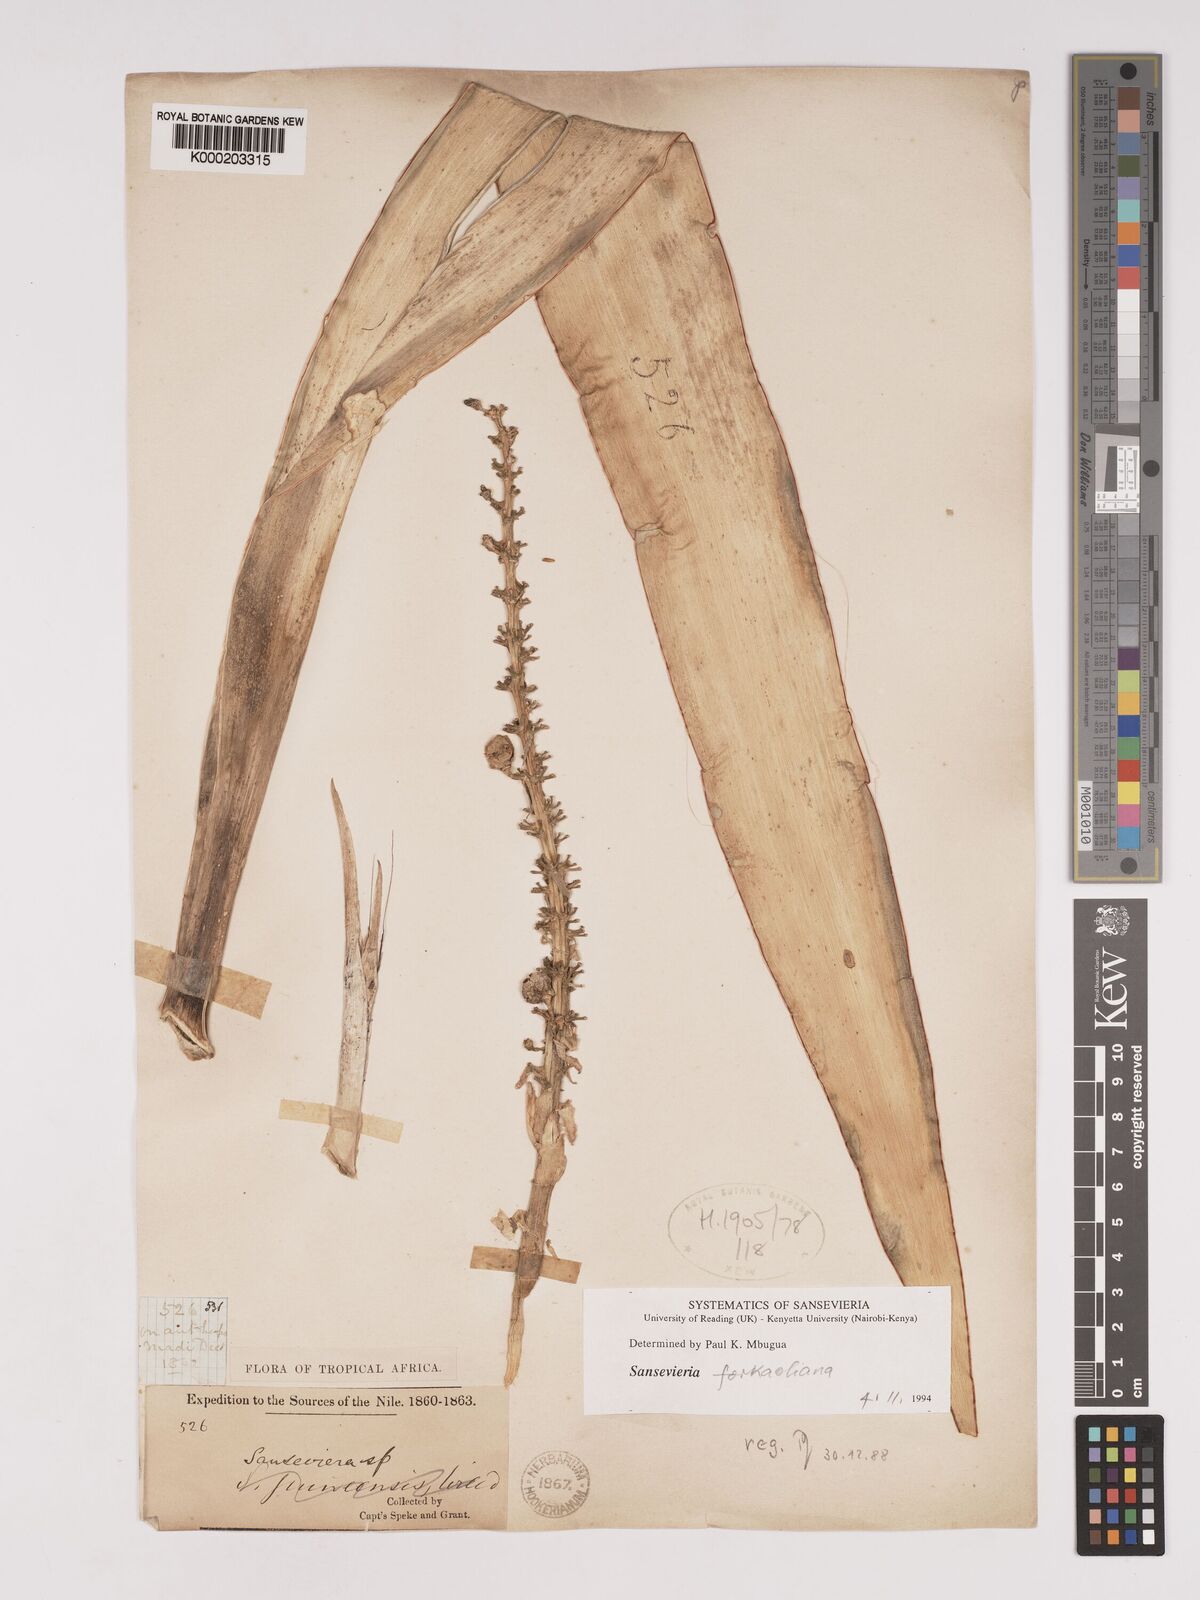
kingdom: Plantae
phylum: Tracheophyta
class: Liliopsida
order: Asparagales
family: Asparagaceae
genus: Dracaena
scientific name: Dracaena
